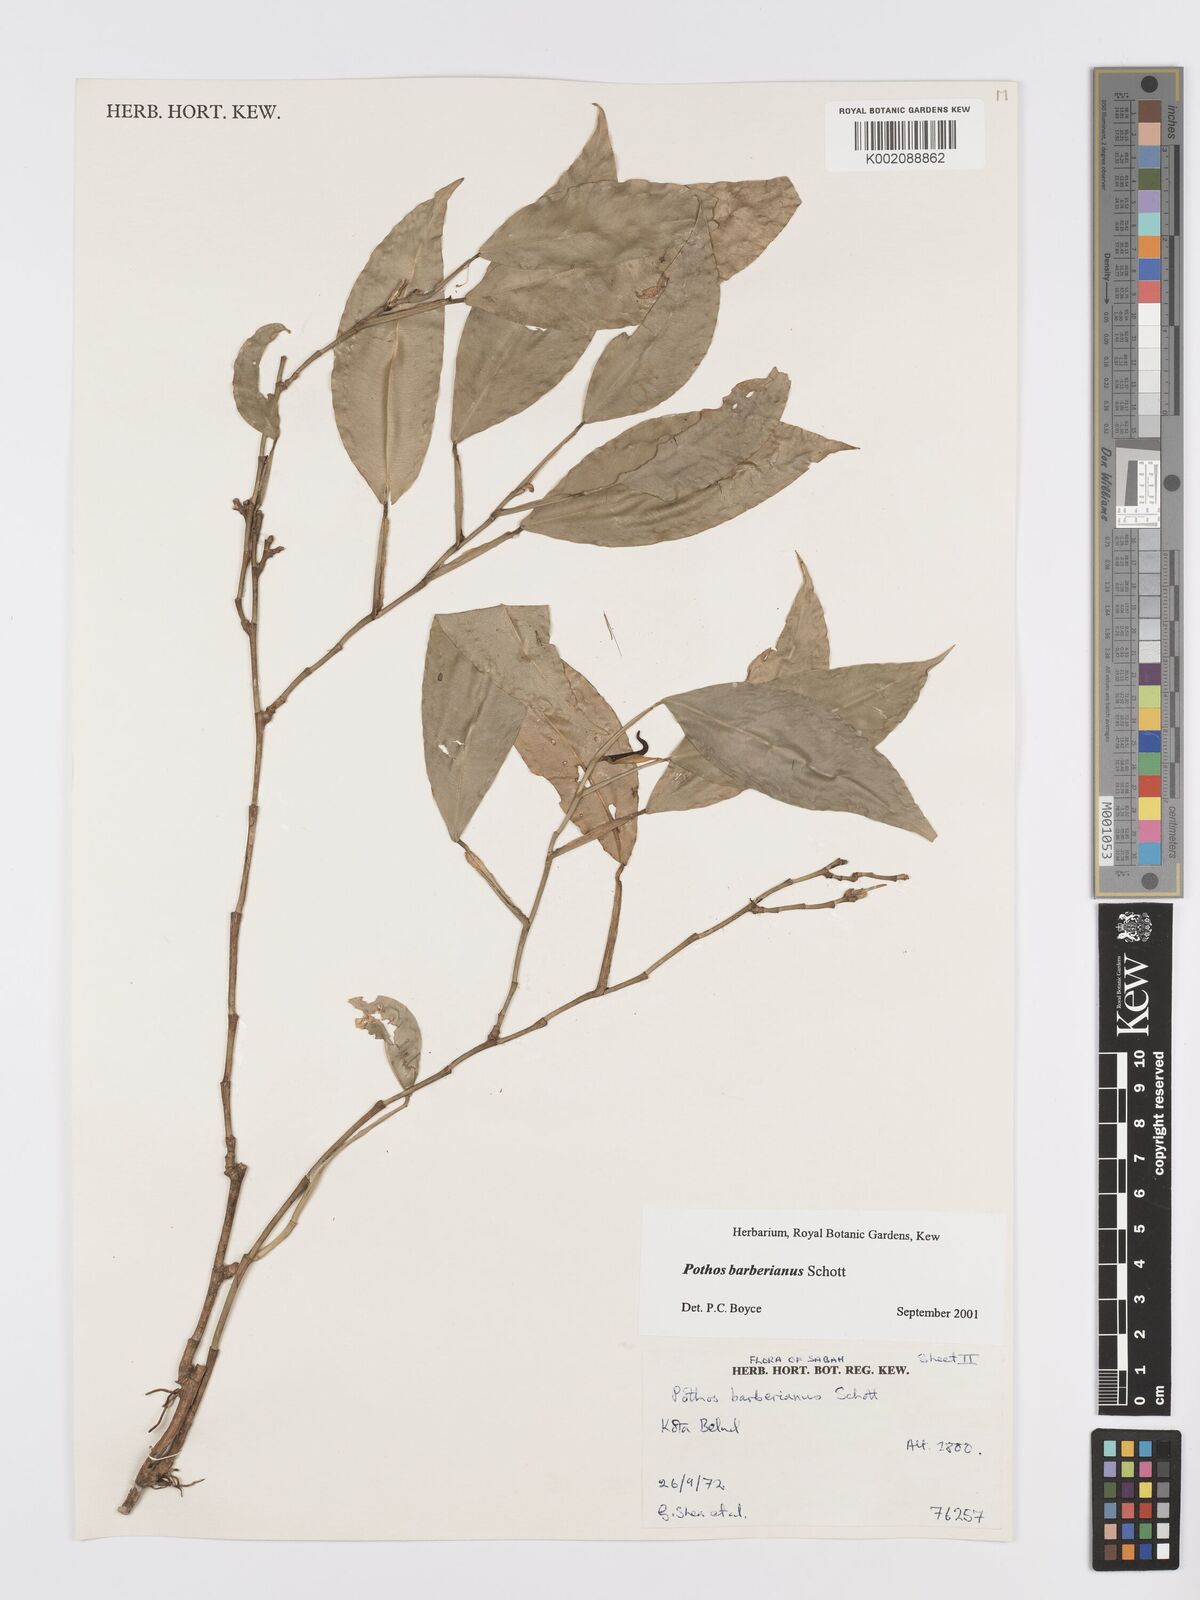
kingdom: Plantae
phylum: Tracheophyta
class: Liliopsida
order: Alismatales
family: Araceae
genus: Pothos
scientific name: Pothos barberianus
